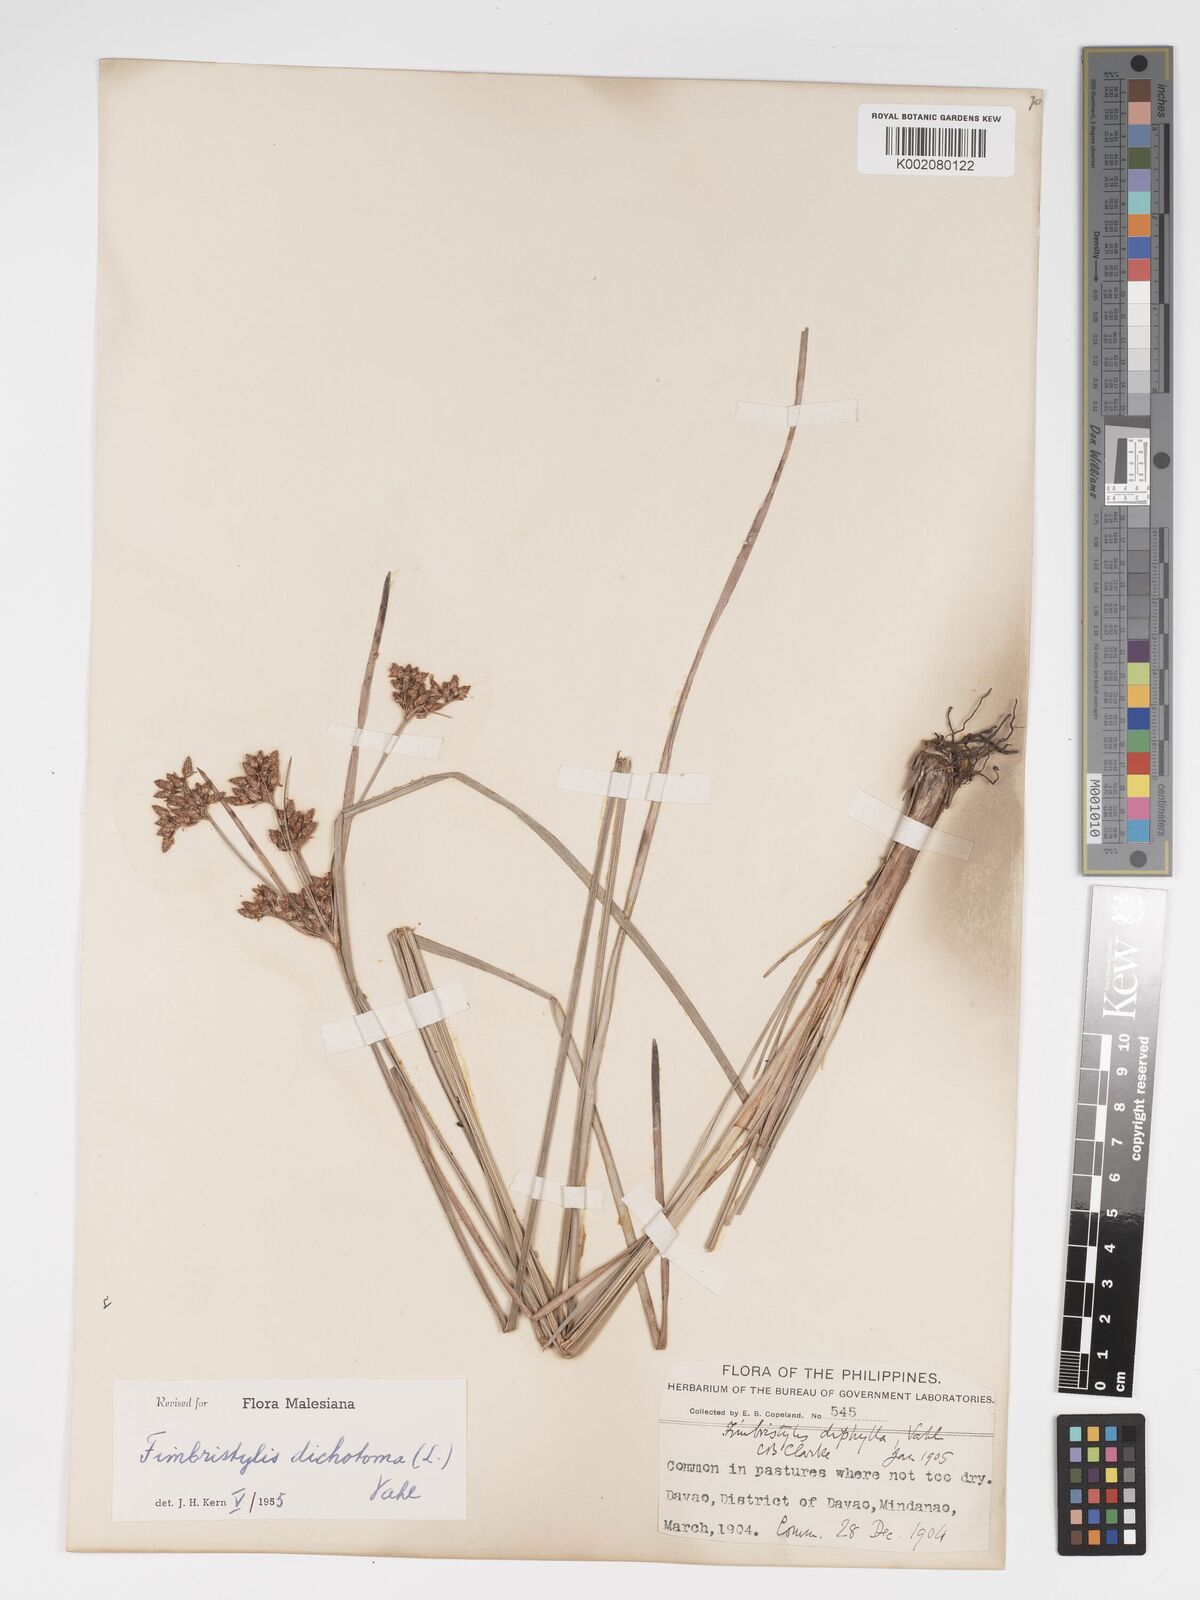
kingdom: Plantae
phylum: Tracheophyta
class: Liliopsida
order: Poales
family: Cyperaceae
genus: Fimbristylis
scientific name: Fimbristylis dichotoma
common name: Forked fimbry
